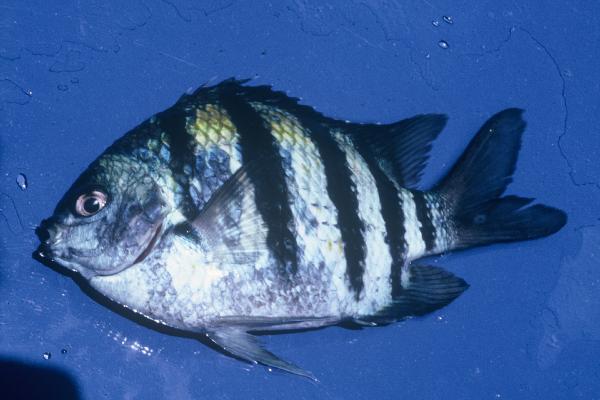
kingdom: Animalia
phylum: Chordata
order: Perciformes
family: Pomacentridae
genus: Abudefduf
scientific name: Abudefduf vaigiensis
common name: Indo-pacific sergeant
